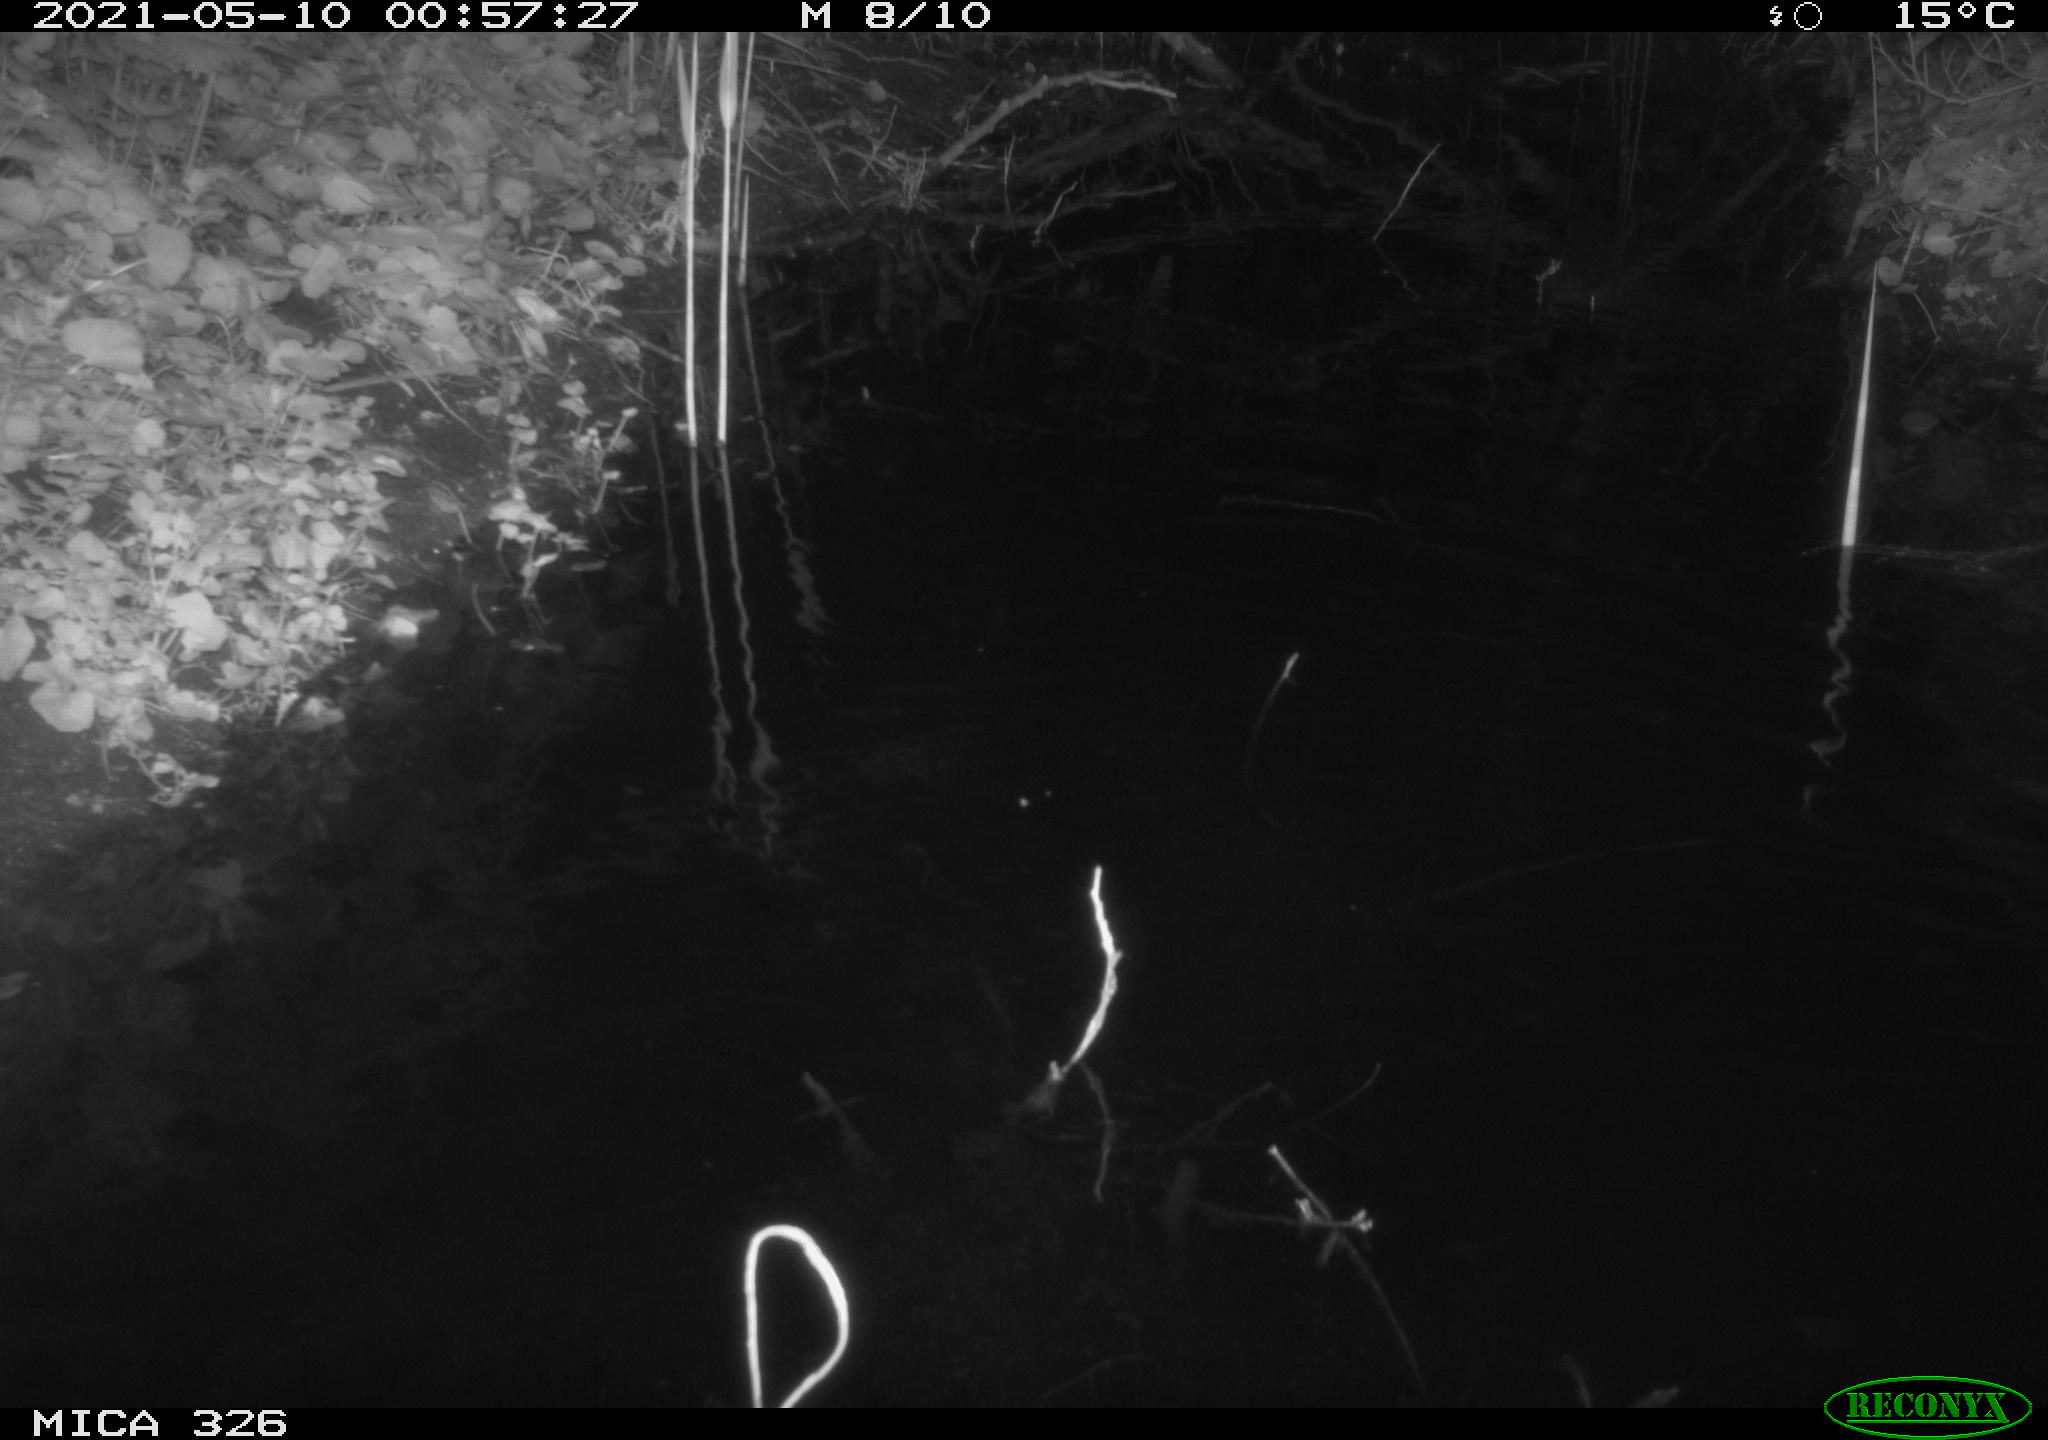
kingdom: Animalia
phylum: Chordata
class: Mammalia
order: Rodentia
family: Muridae
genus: Rattus
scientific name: Rattus norvegicus
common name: Brown rat
